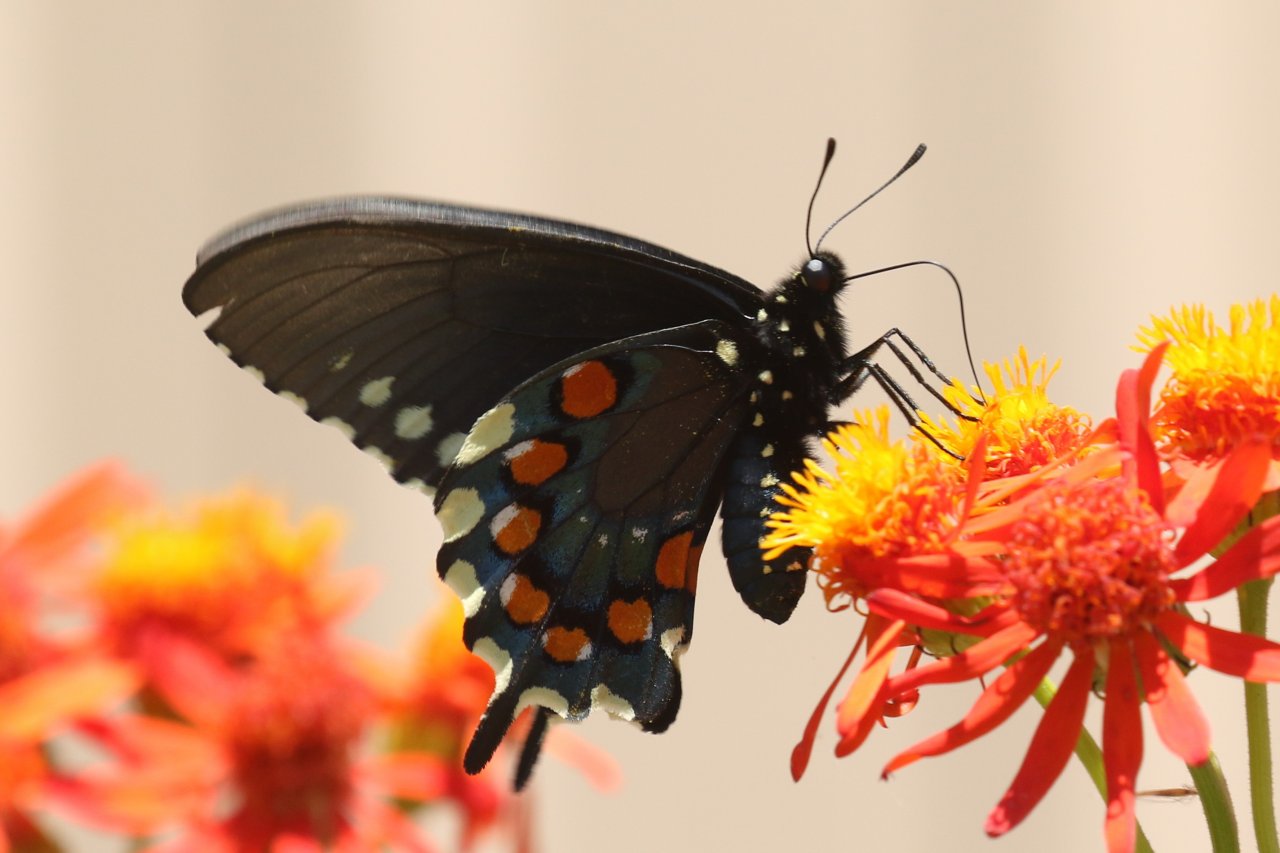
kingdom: Animalia
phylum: Arthropoda
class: Insecta
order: Lepidoptera
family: Papilionidae
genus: Battus
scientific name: Battus philenor
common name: Pipevine Swallowtail
